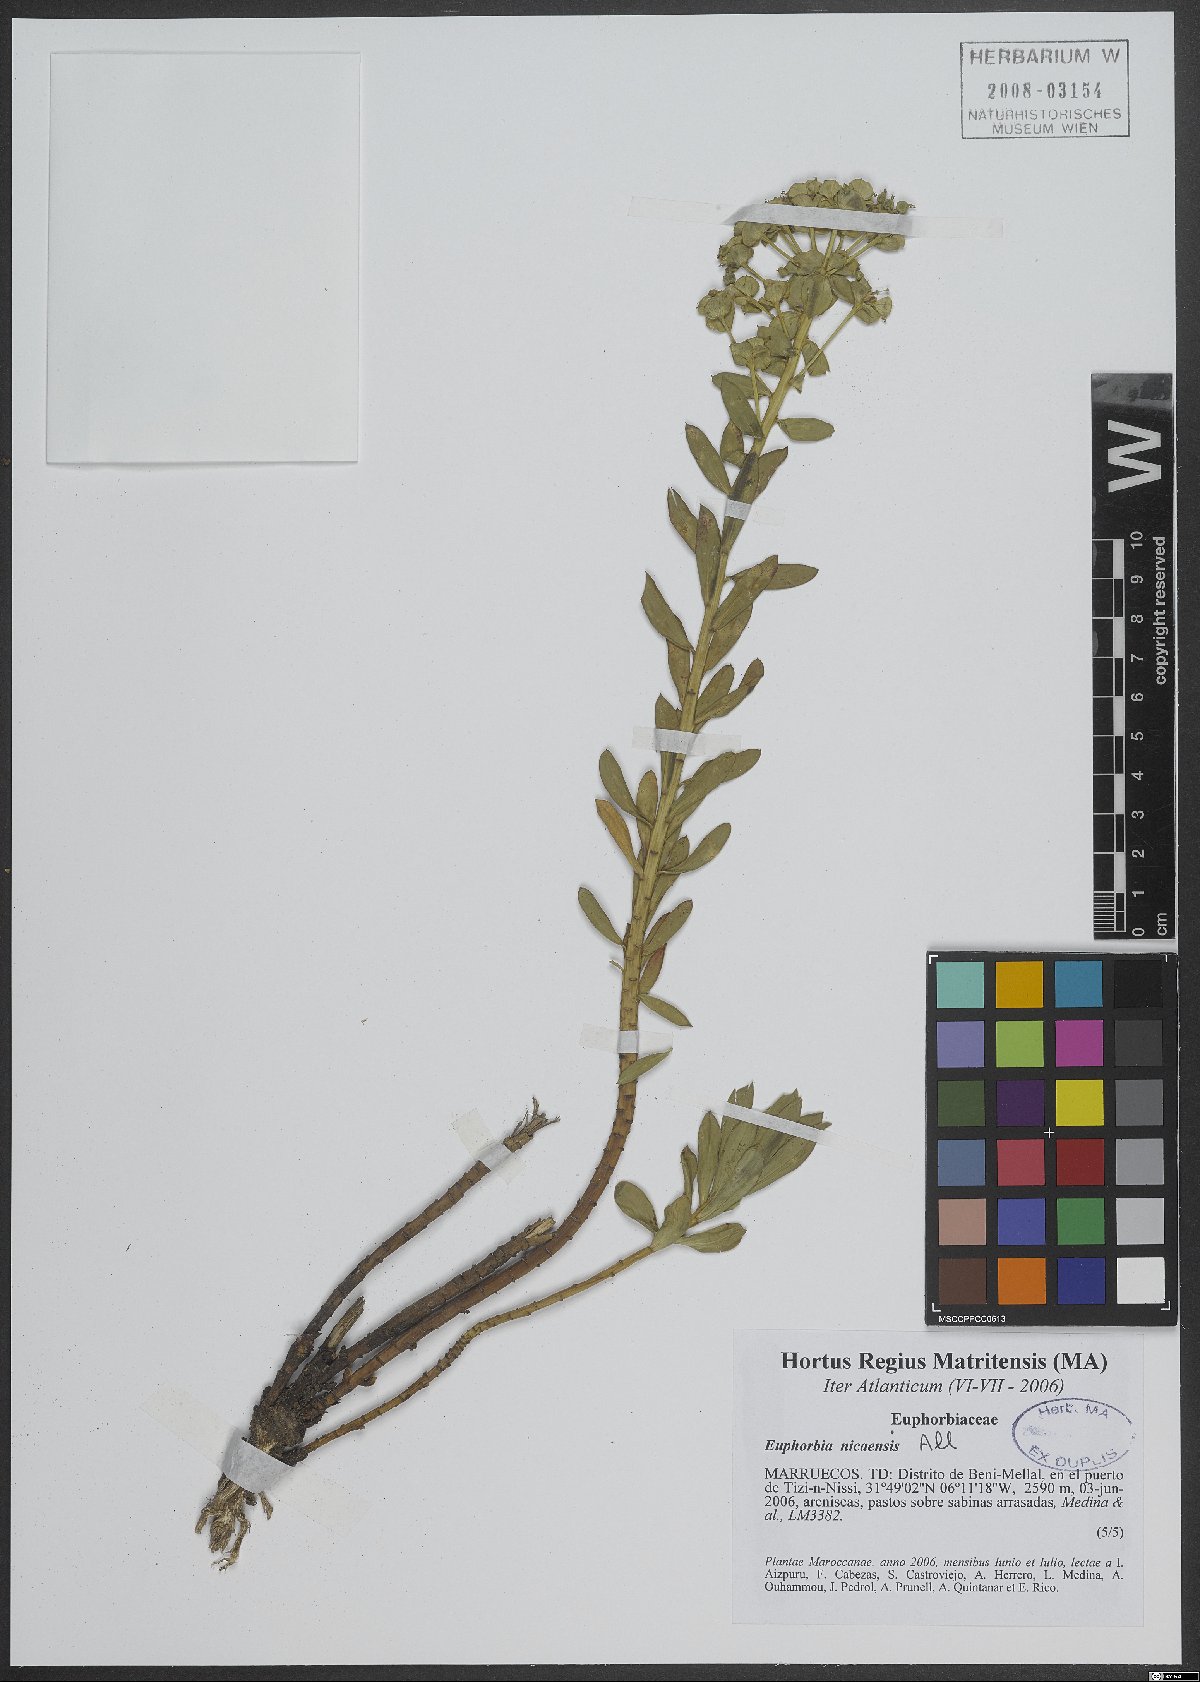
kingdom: Plantae
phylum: Tracheophyta
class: Magnoliopsida
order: Malpighiales
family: Euphorbiaceae
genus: Euphorbia
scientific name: Euphorbia nicaeensis
